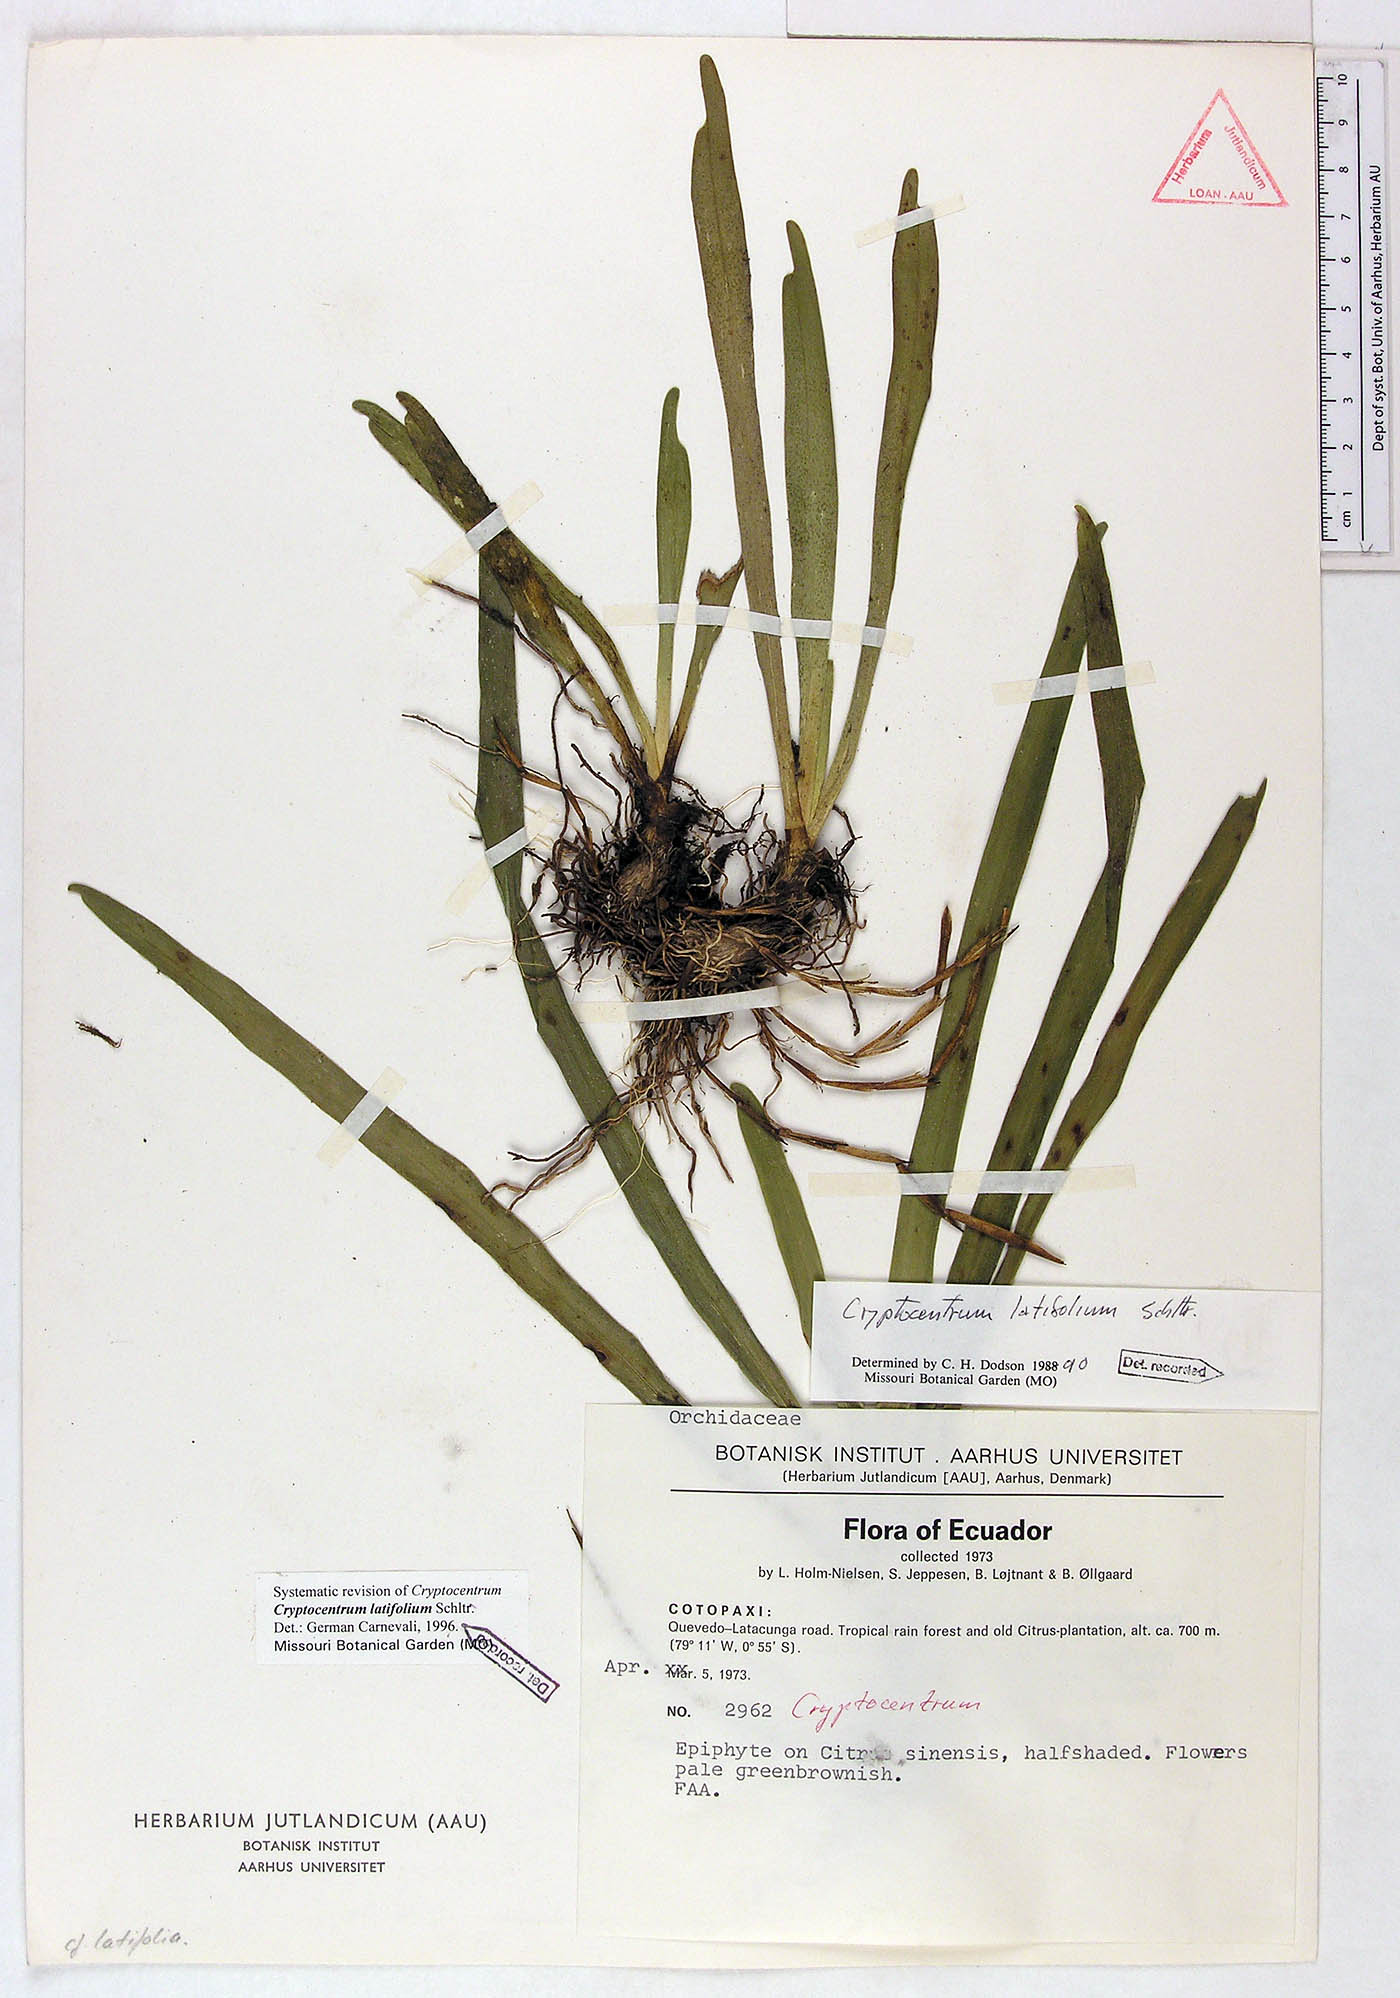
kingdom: Plantae
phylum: Tracheophyta
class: Liliopsida
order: Asparagales
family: Orchidaceae
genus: Maxillaria
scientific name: Maxillaria amplifoliata
